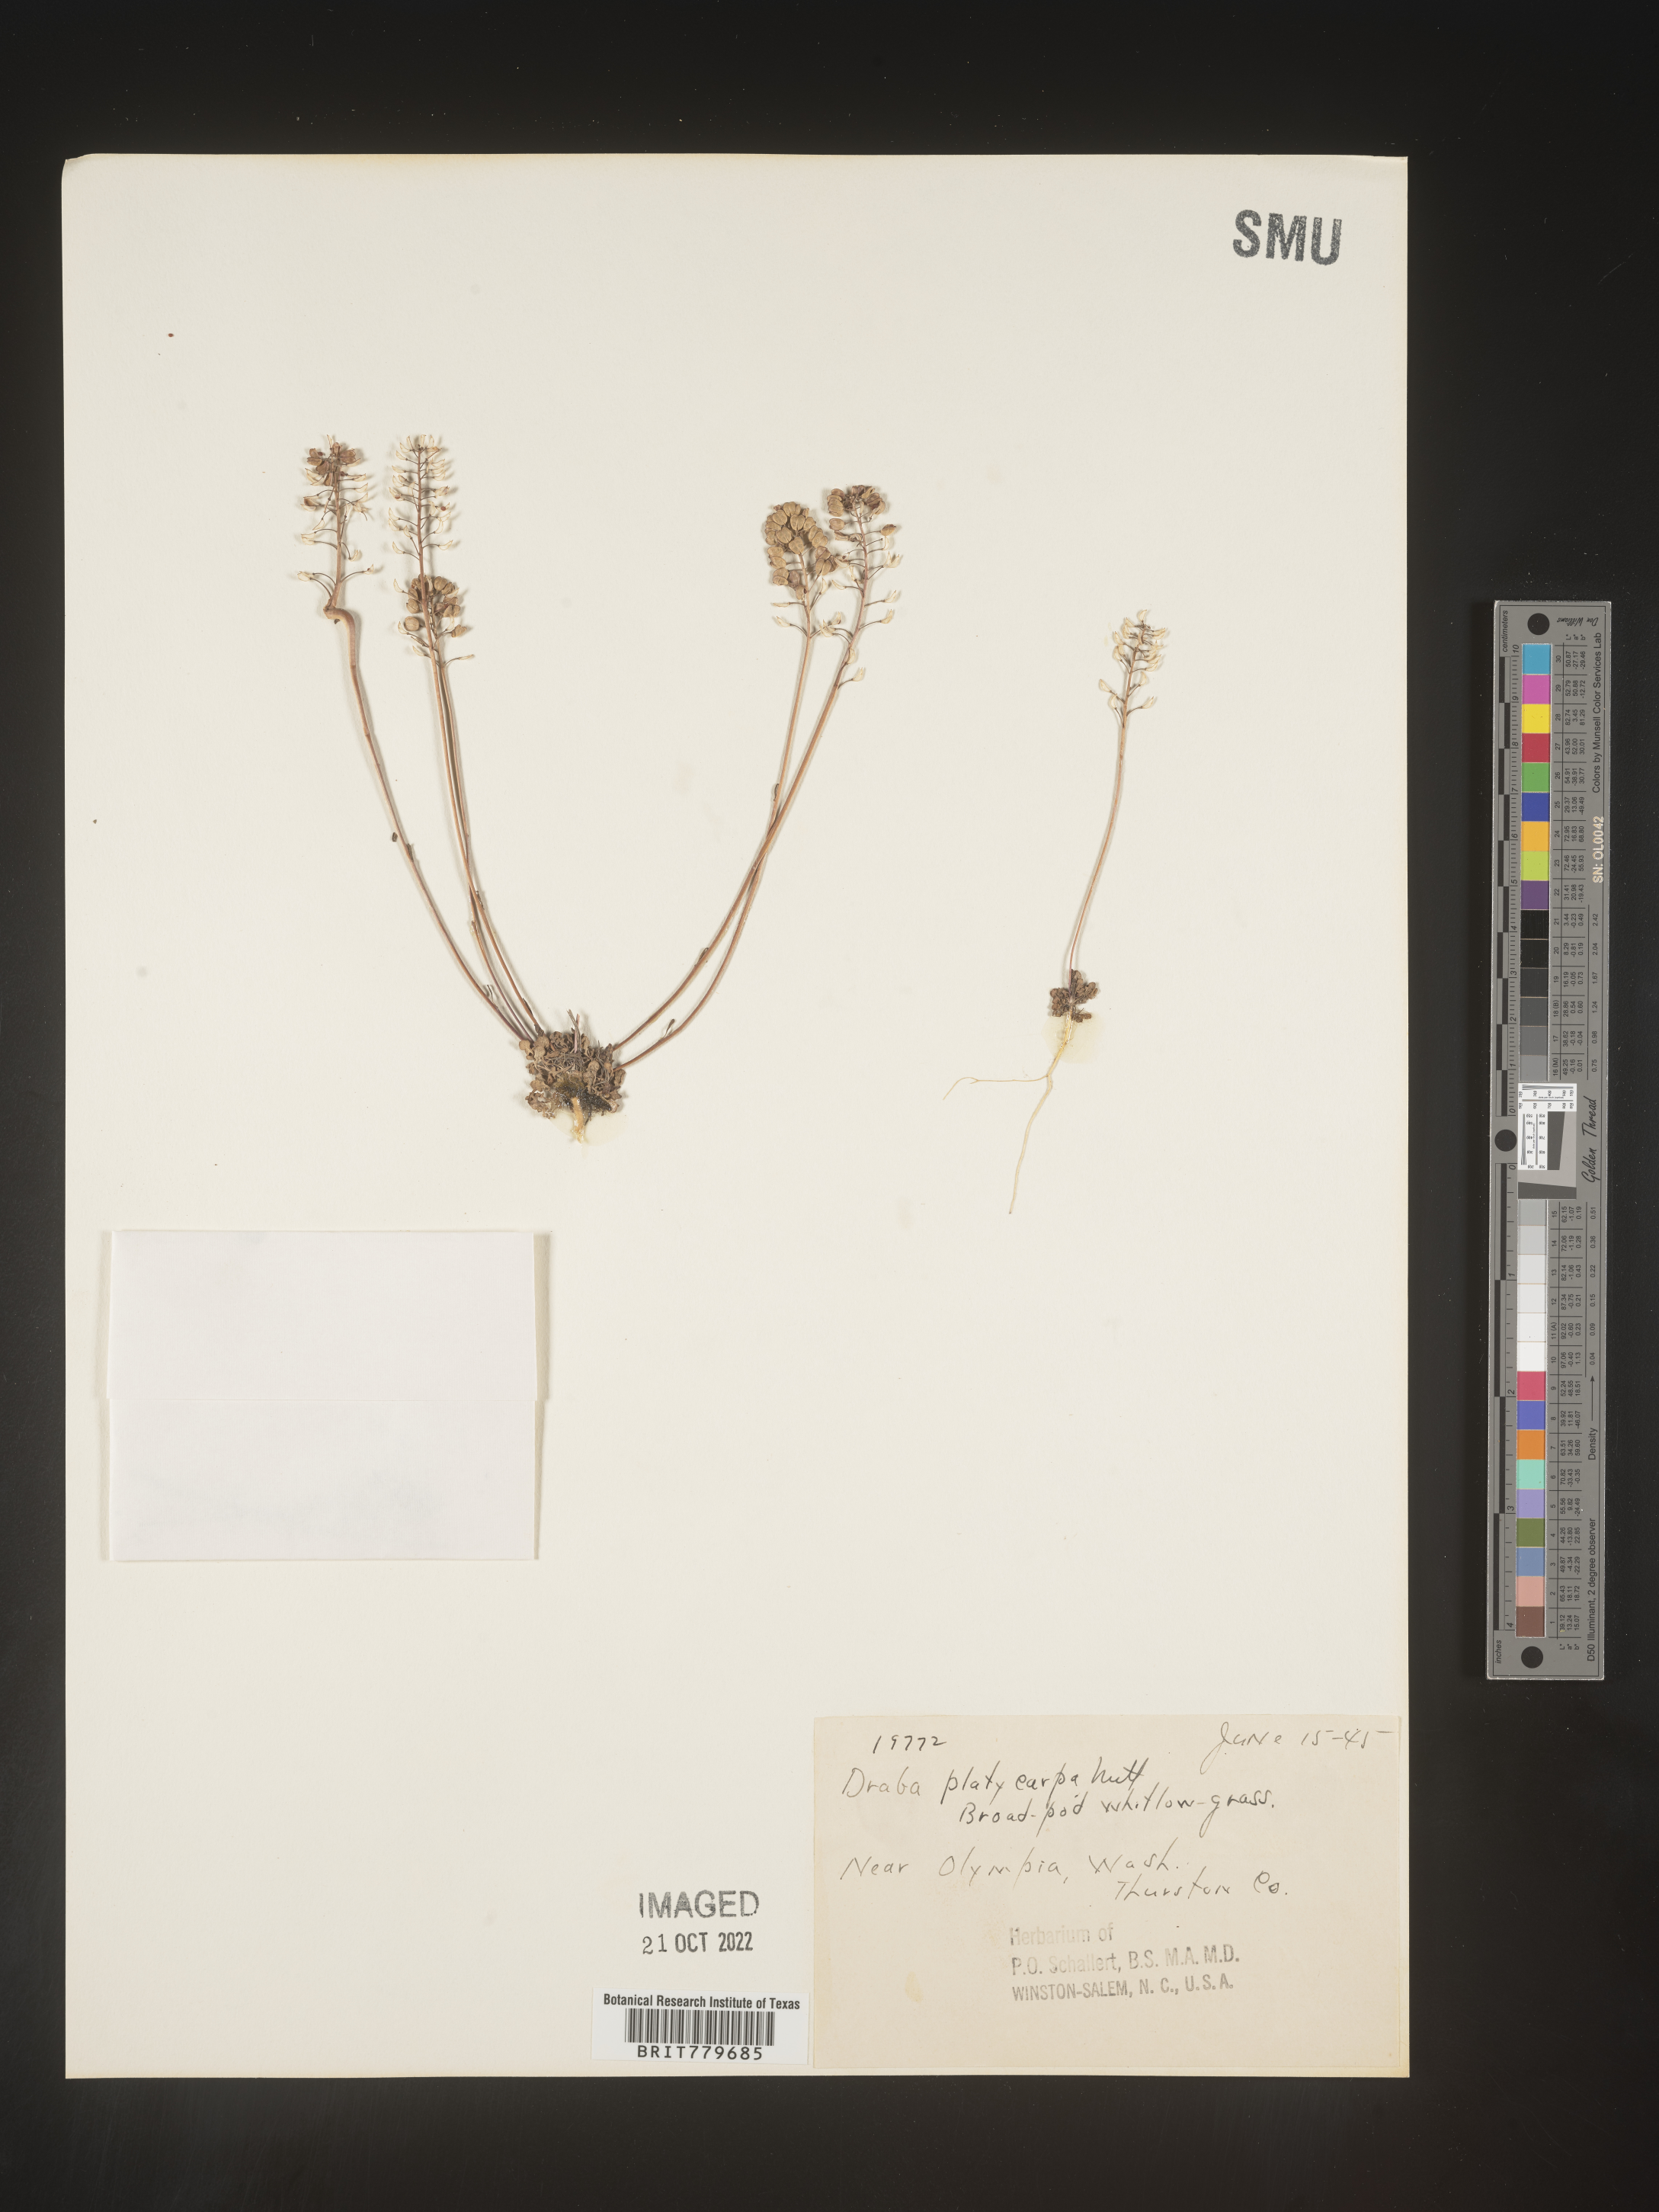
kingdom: Plantae
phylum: Tracheophyta
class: Magnoliopsida
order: Brassicales
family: Brassicaceae
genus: Teesdalia
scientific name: Teesdalia
